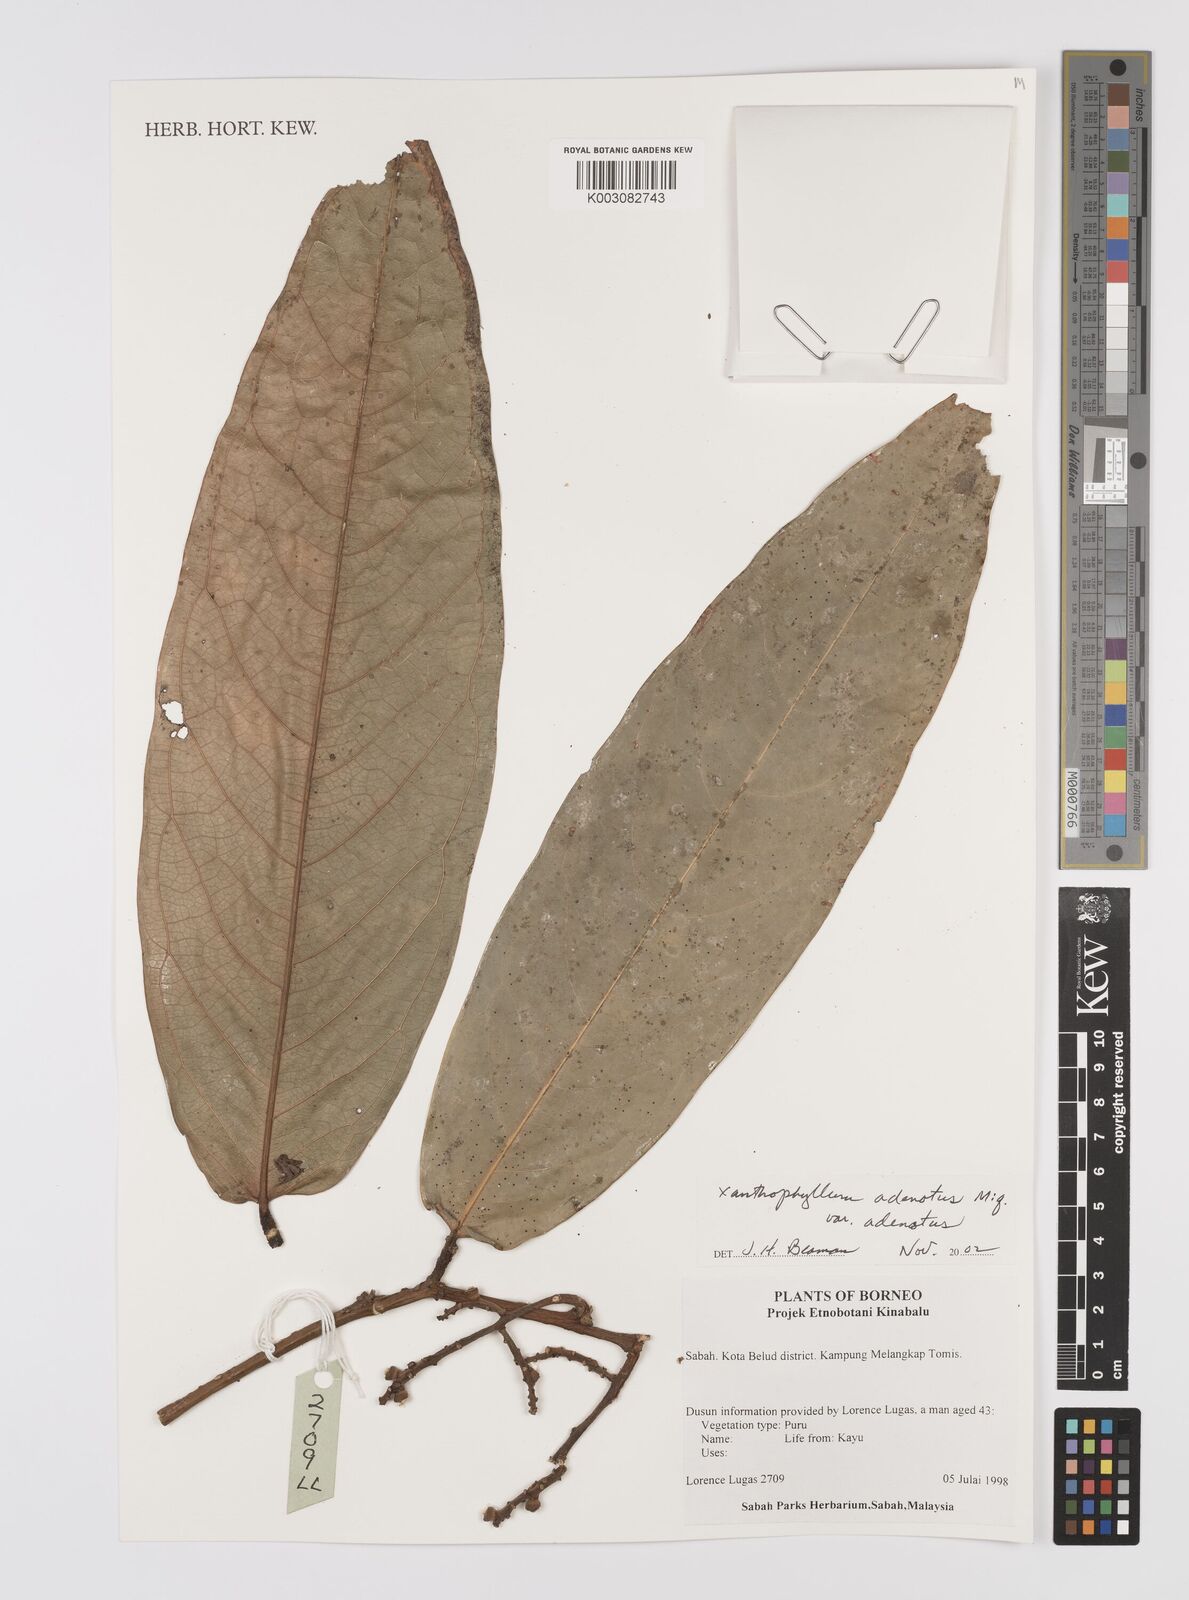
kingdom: Plantae
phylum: Tracheophyta
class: Magnoliopsida
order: Fabales
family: Polygalaceae
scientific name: Polygalaceae
